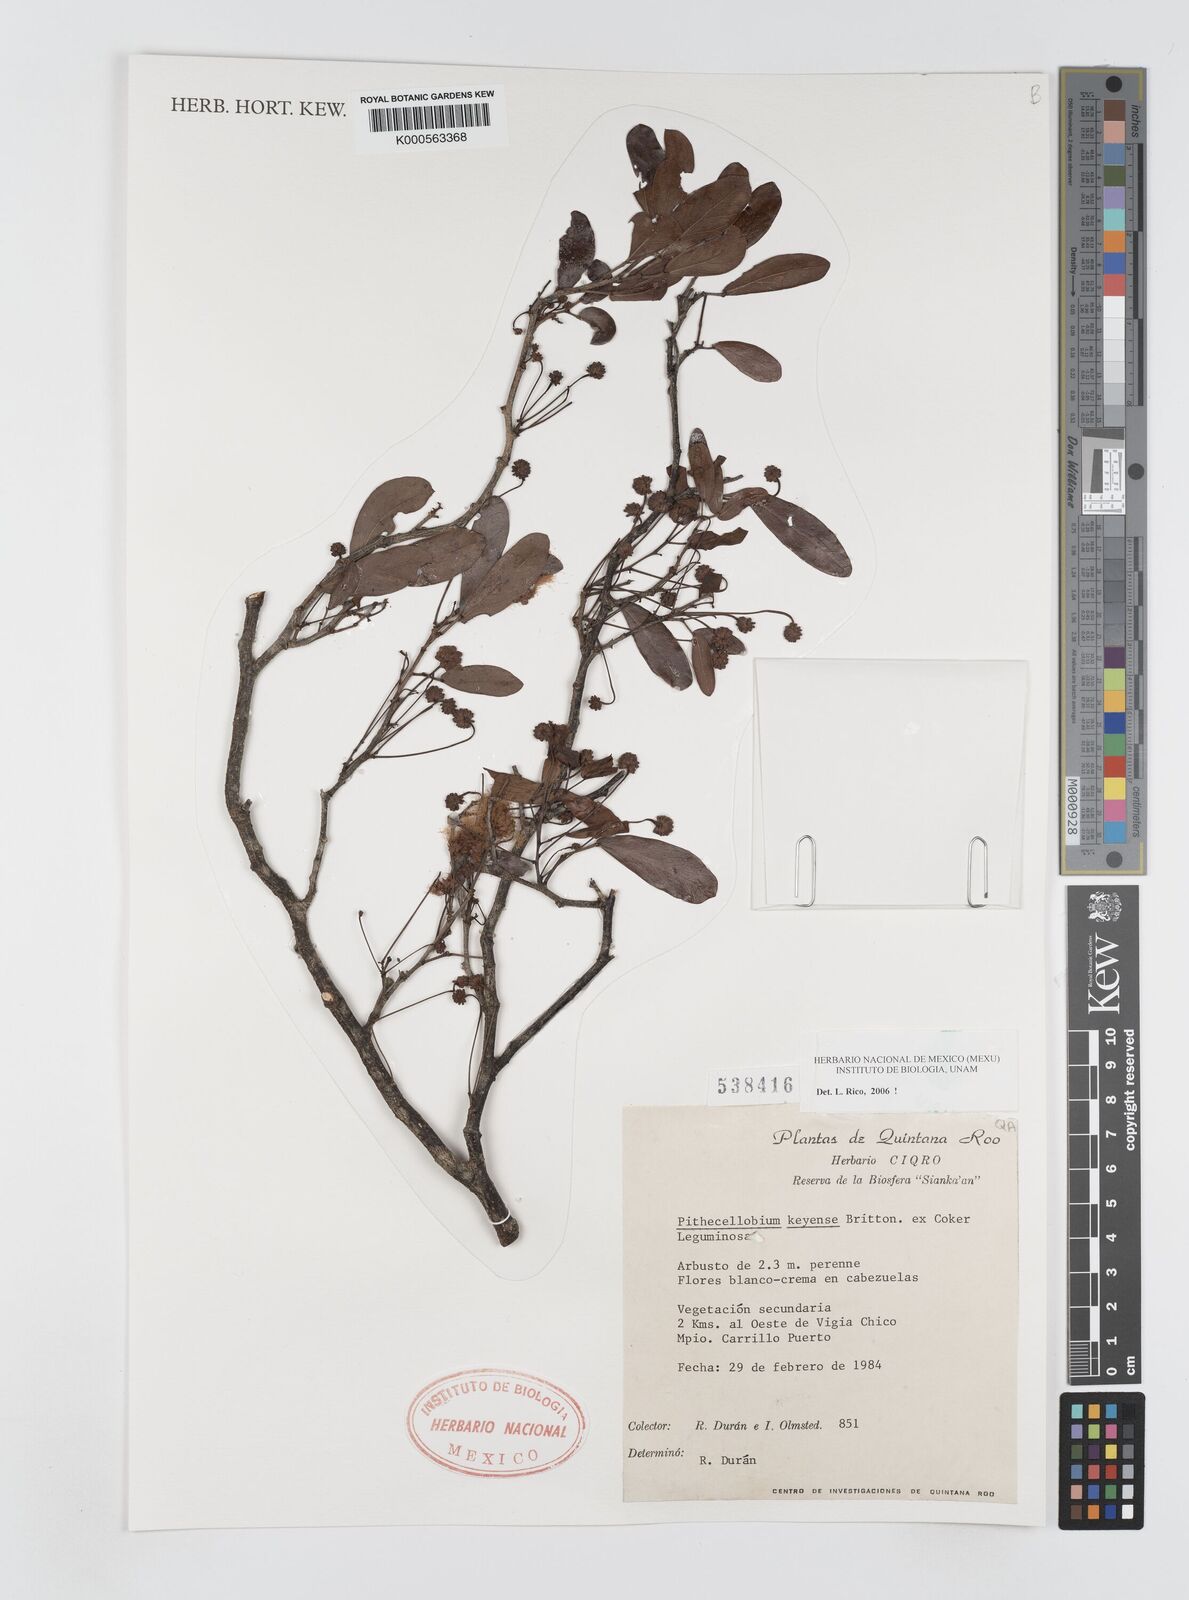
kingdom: Plantae
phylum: Tracheophyta
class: Magnoliopsida
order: Fabales
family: Fabaceae
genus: Pithecellobium
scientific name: Pithecellobium
